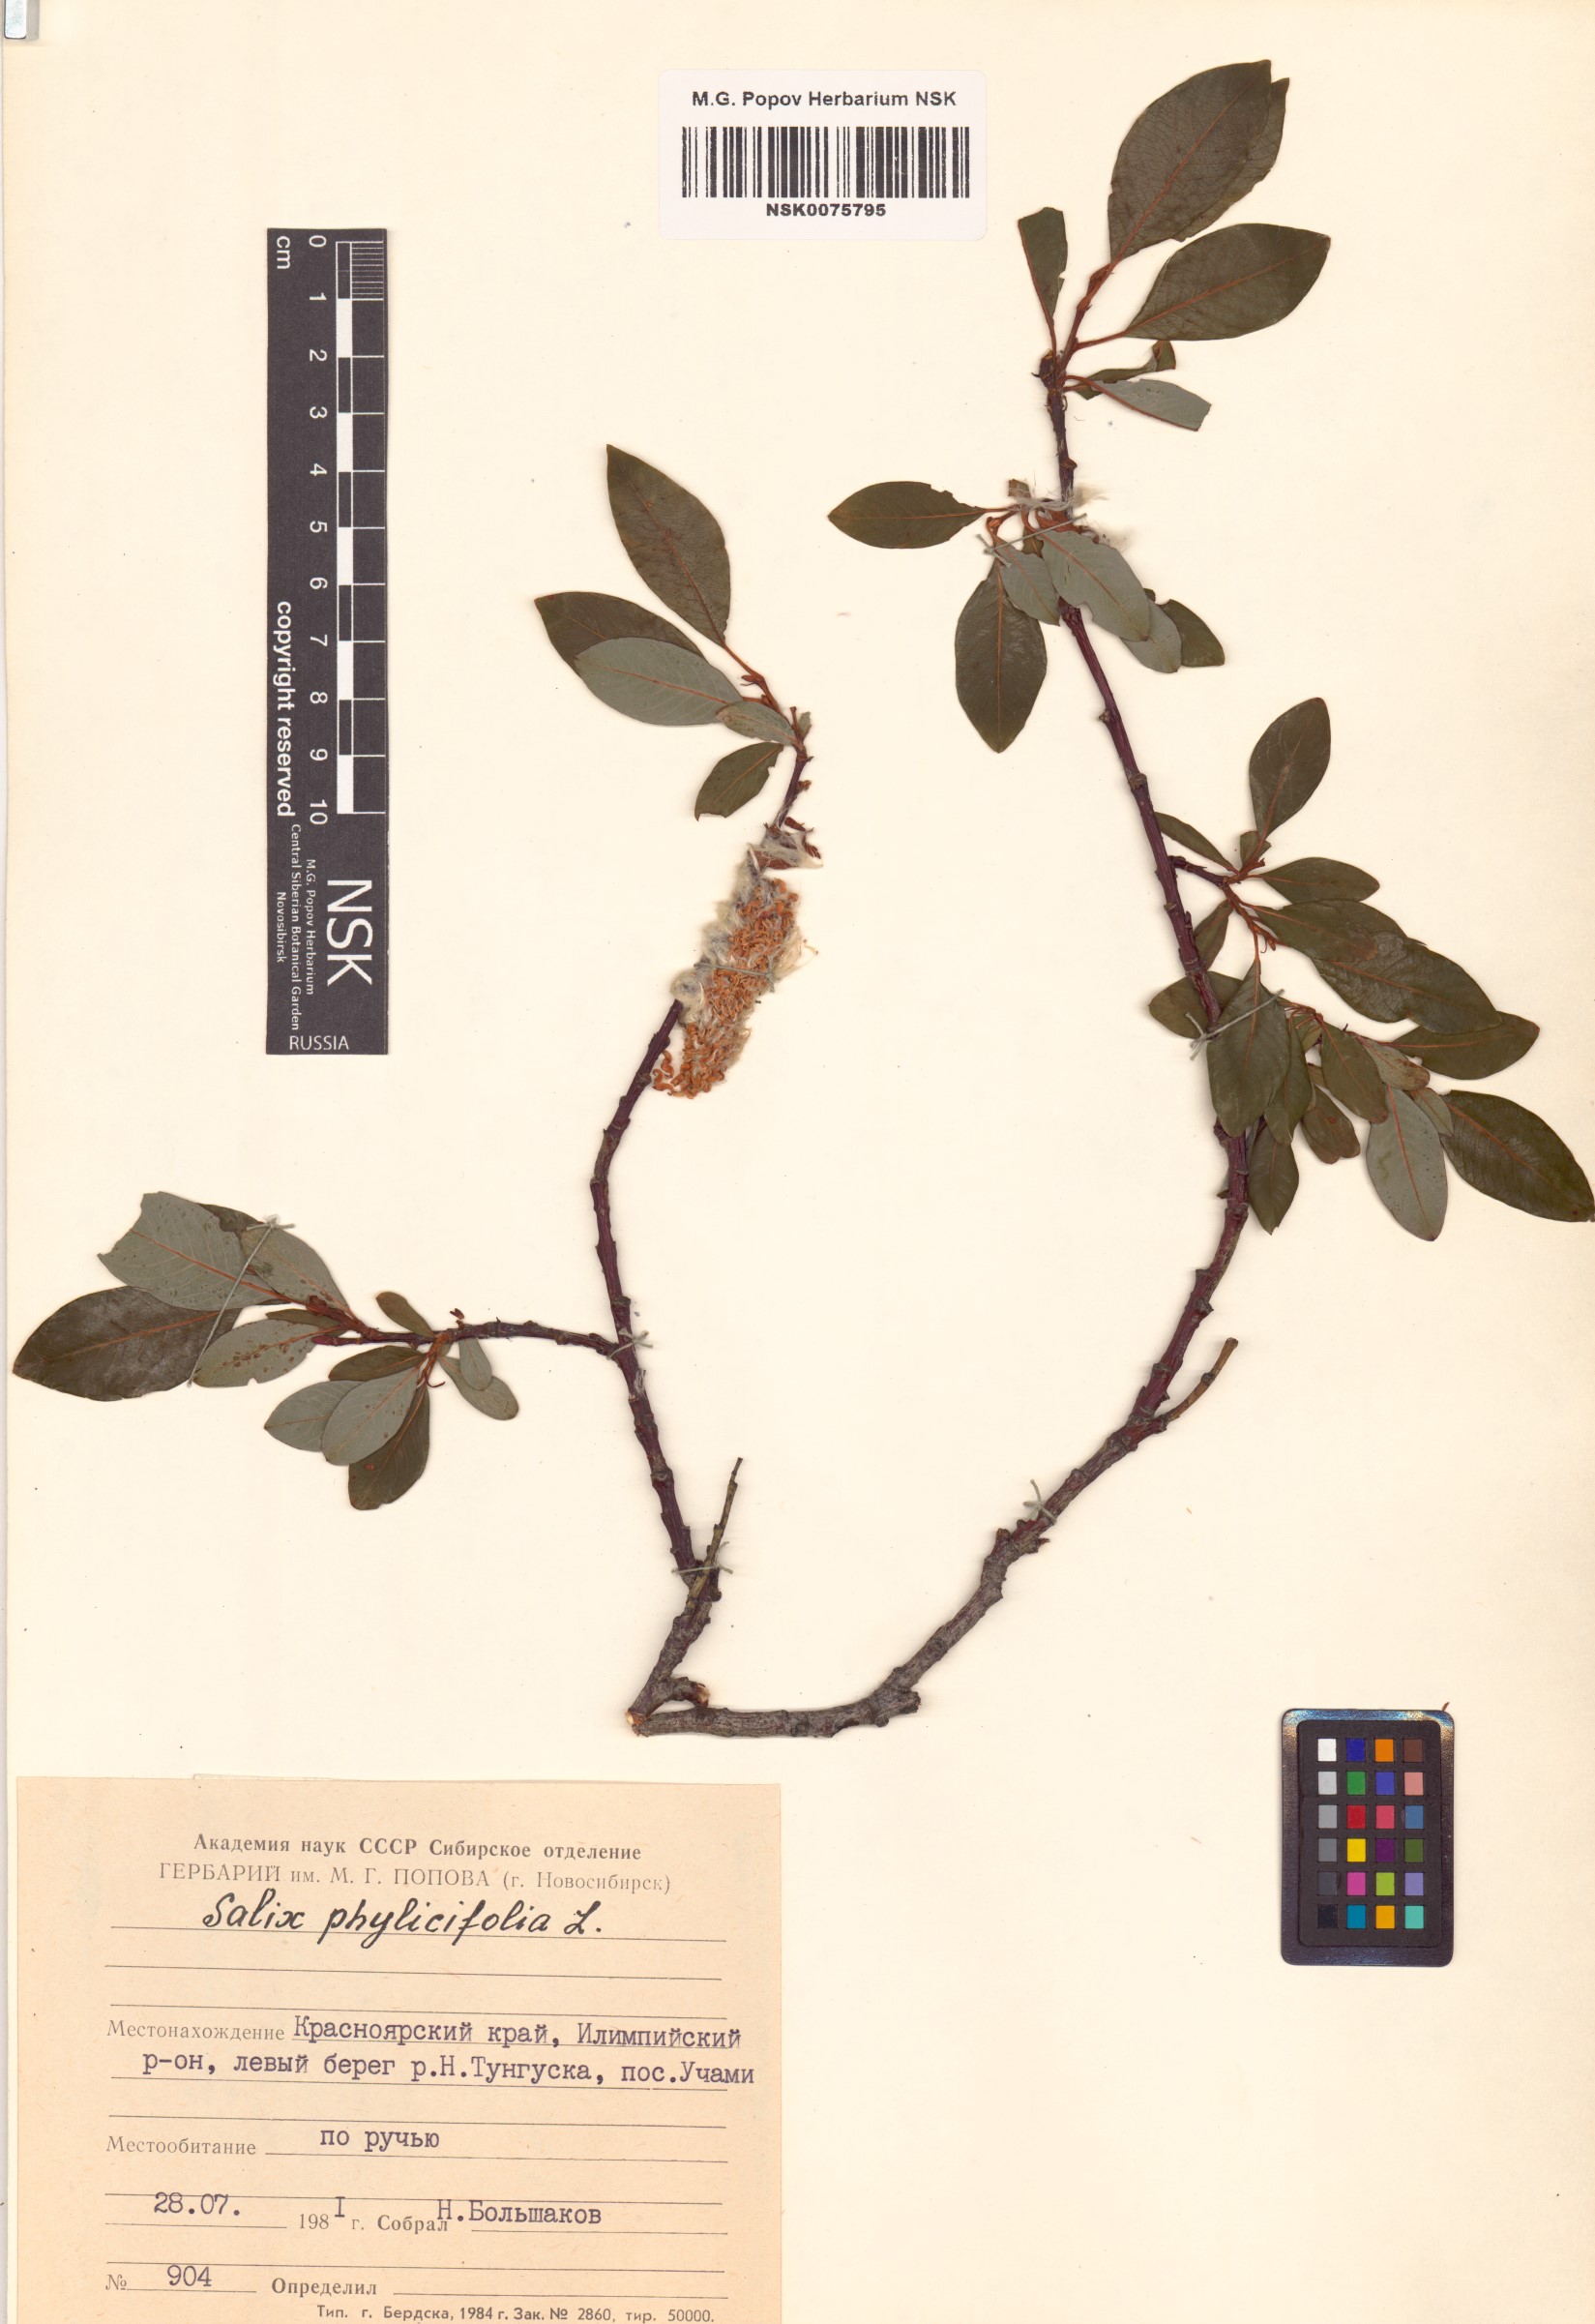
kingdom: Plantae
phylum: Tracheophyta
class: Magnoliopsida
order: Malpighiales
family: Salicaceae
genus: Salix
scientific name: Salix phylicifolia
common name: Tea-leaved willow
